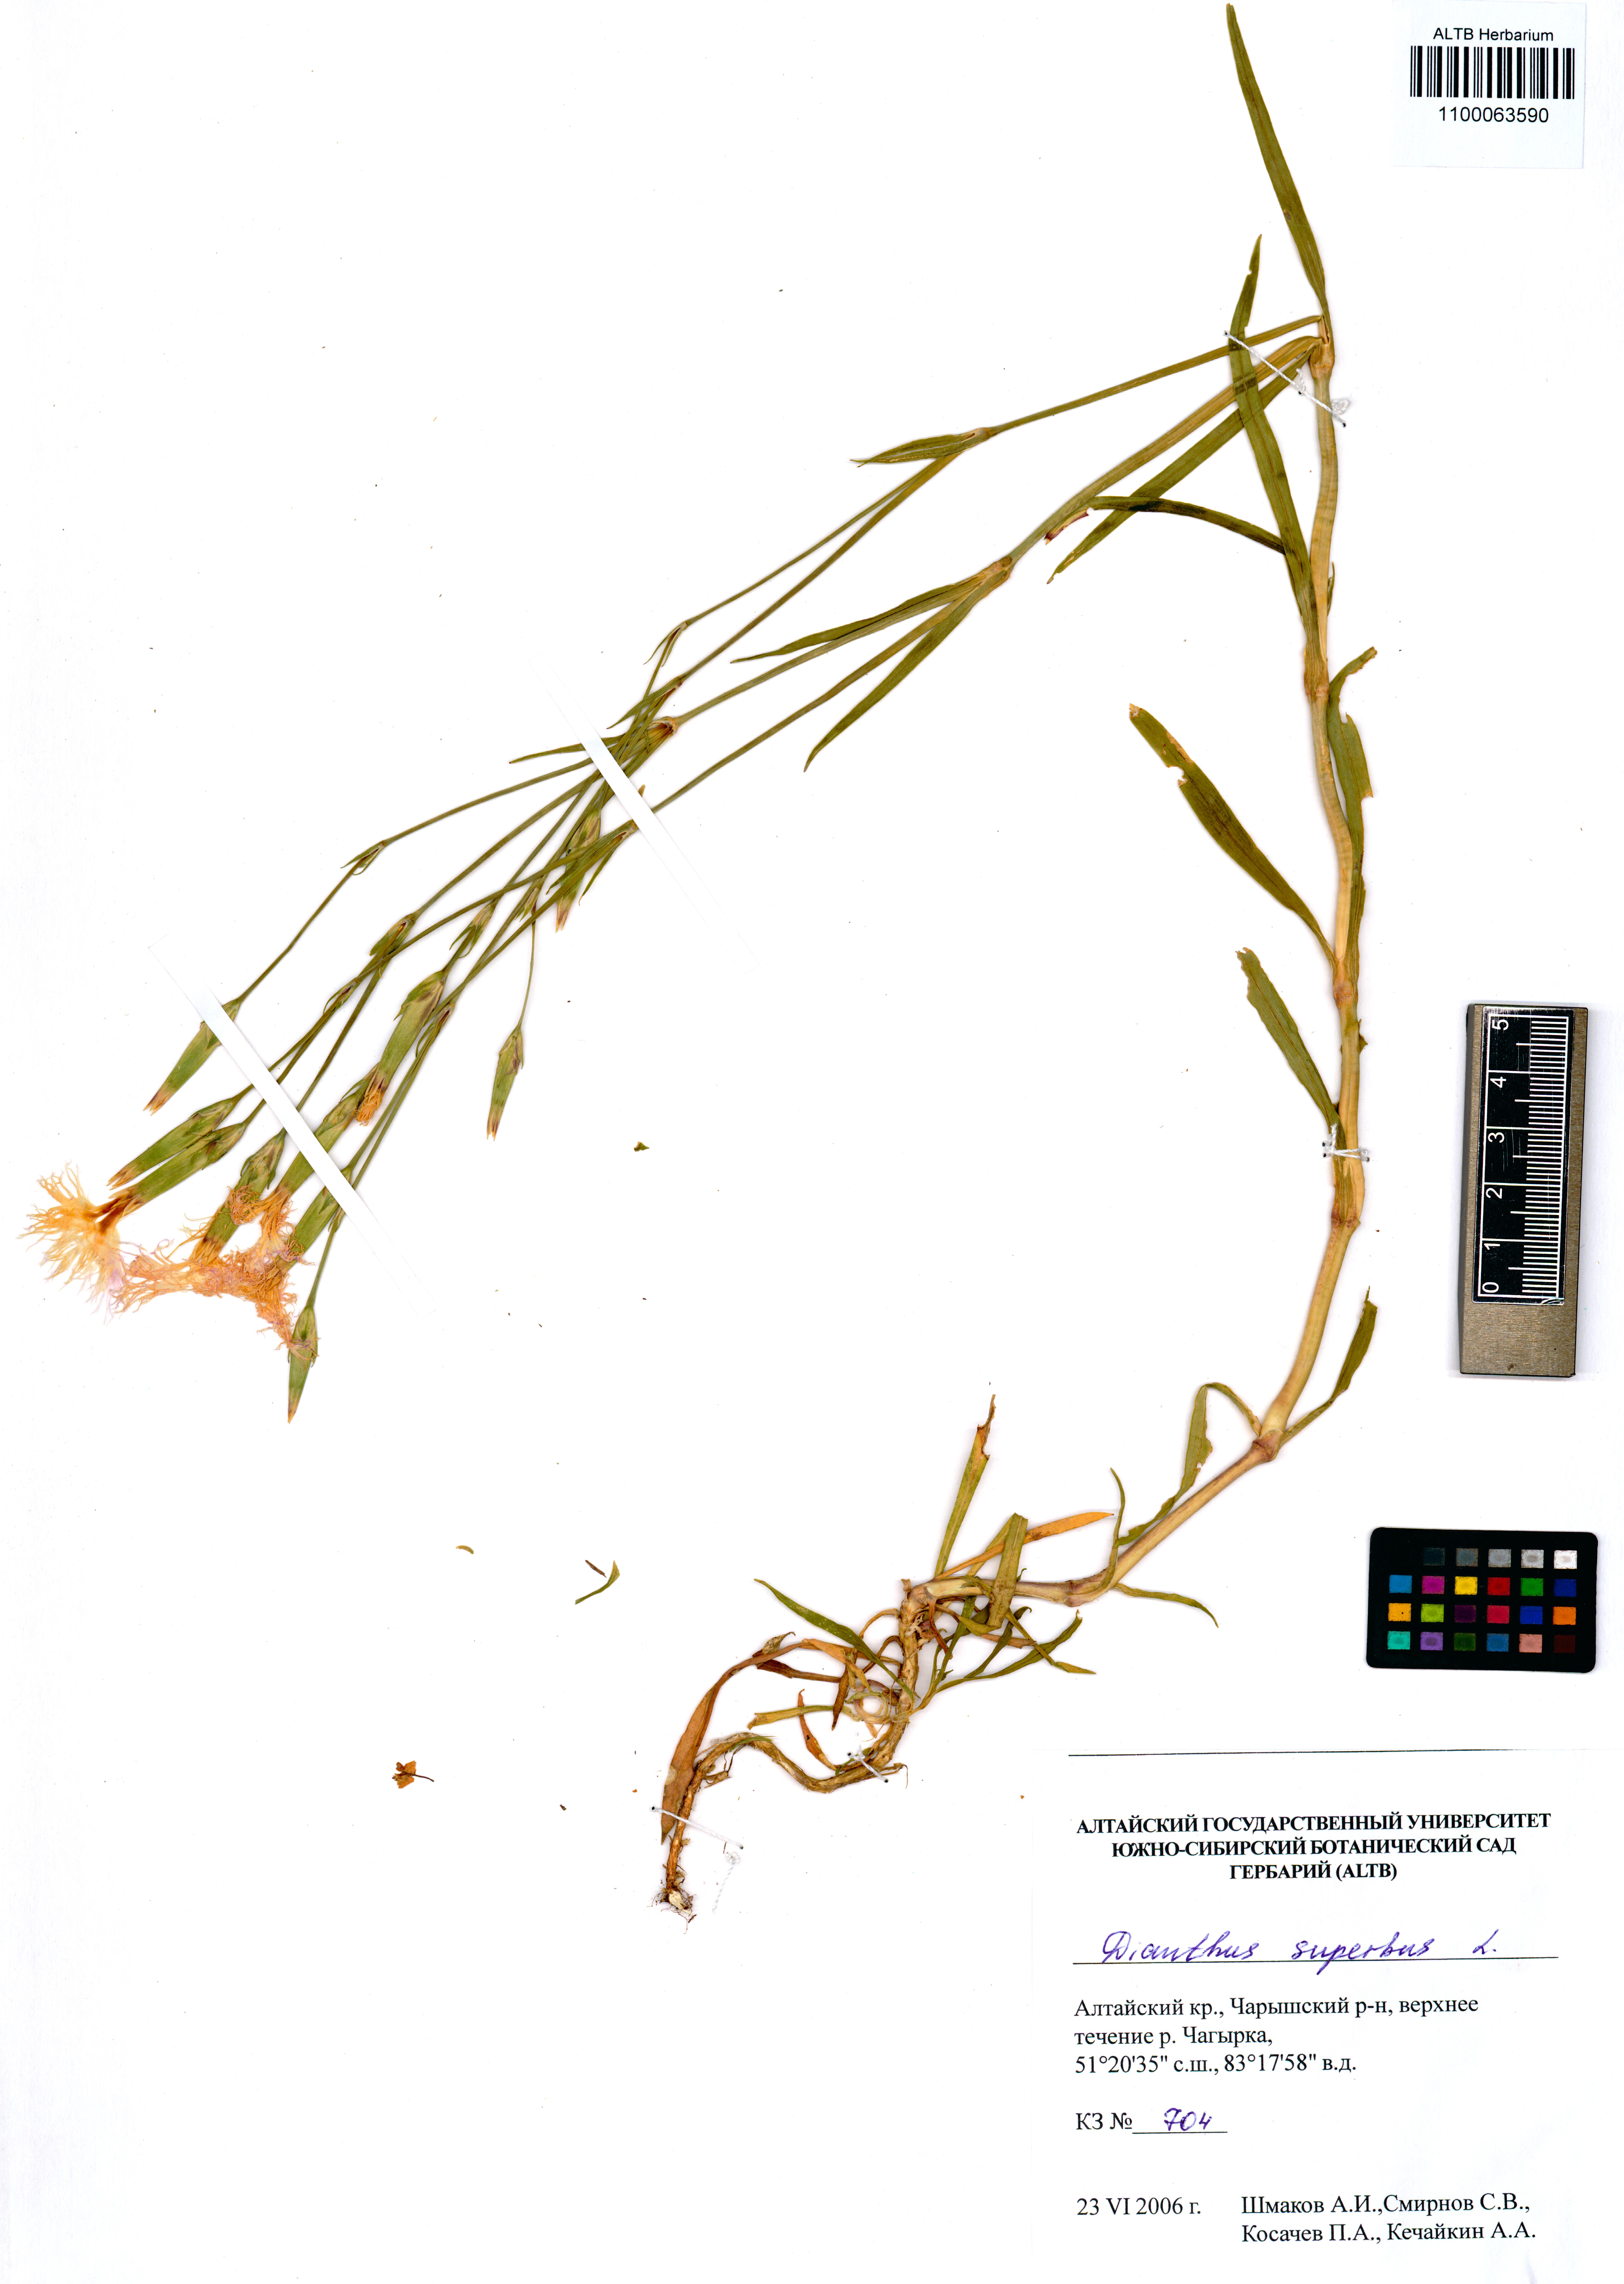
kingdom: Plantae
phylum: Tracheophyta
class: Magnoliopsida
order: Caryophyllales
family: Caryophyllaceae
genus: Dianthus
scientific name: Dianthus superbus
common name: Fringed pink
